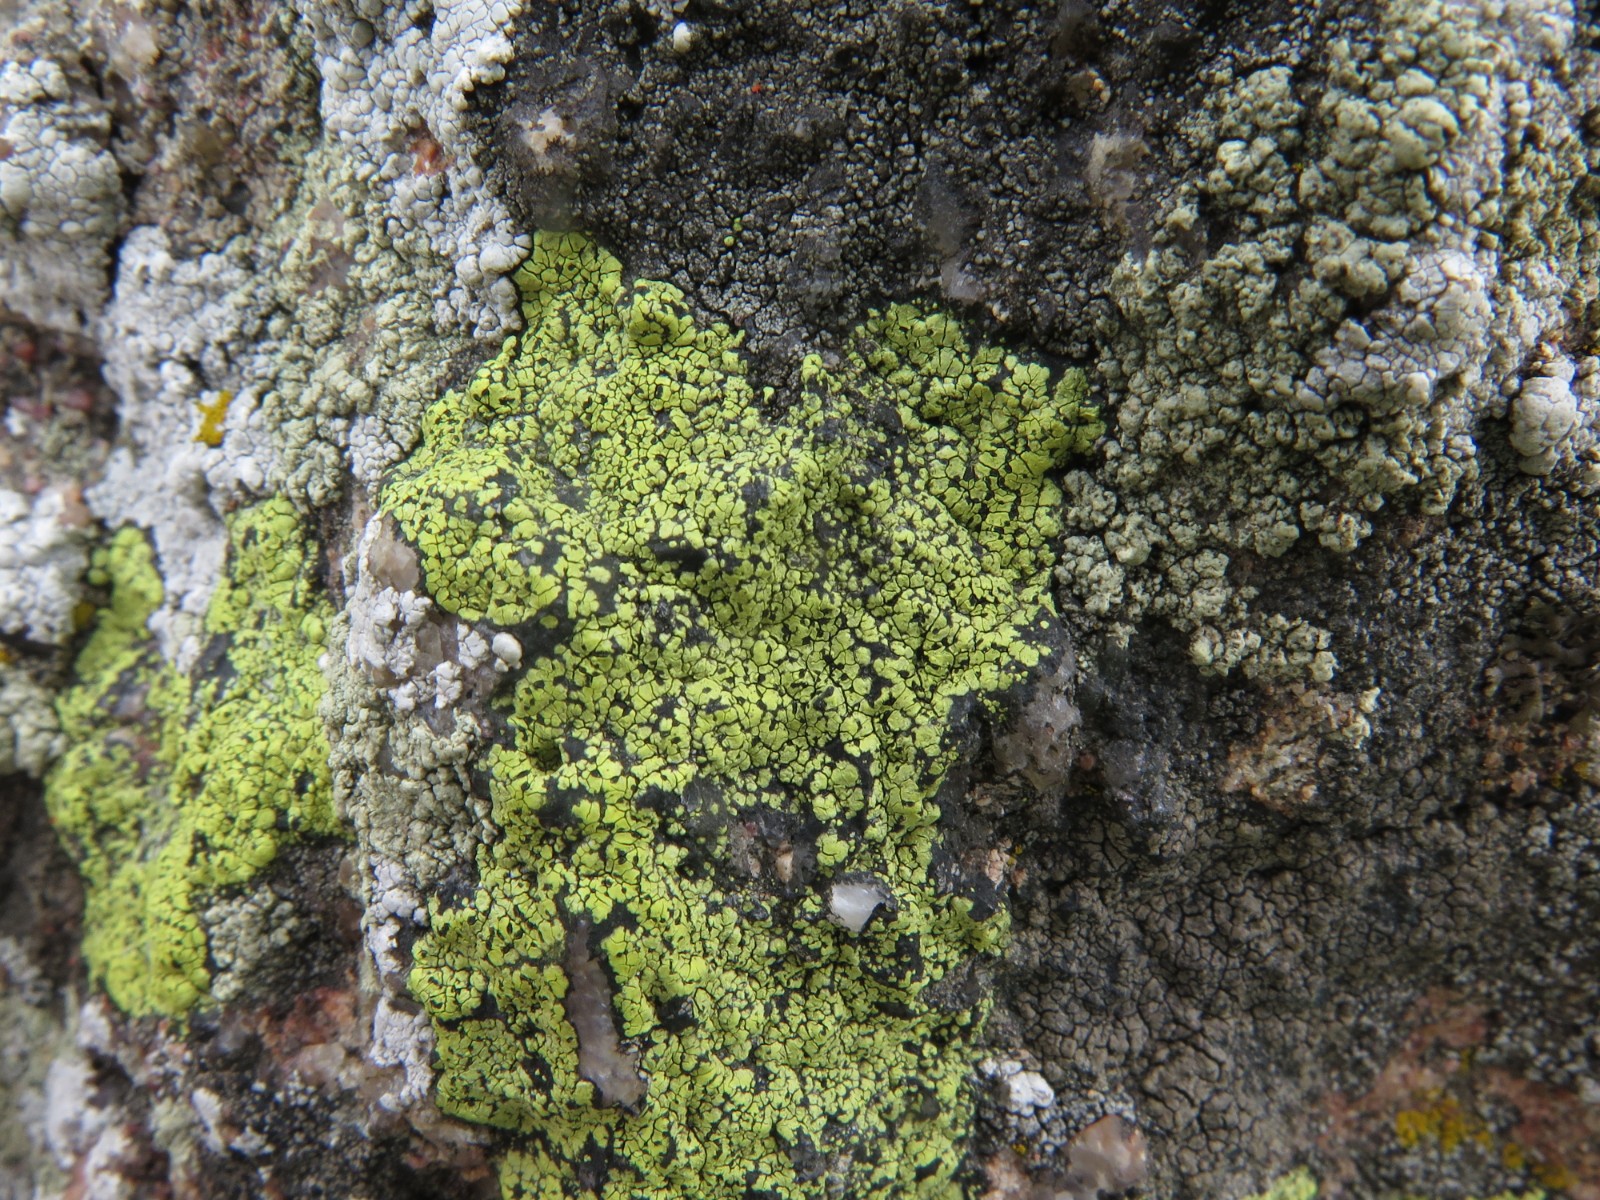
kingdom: Fungi
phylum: Ascomycota
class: Lecanoromycetes
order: Rhizocarpales
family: Rhizocarpaceae
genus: Rhizocarpon
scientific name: Rhizocarpon lecanorinum
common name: krave-landkortlav
